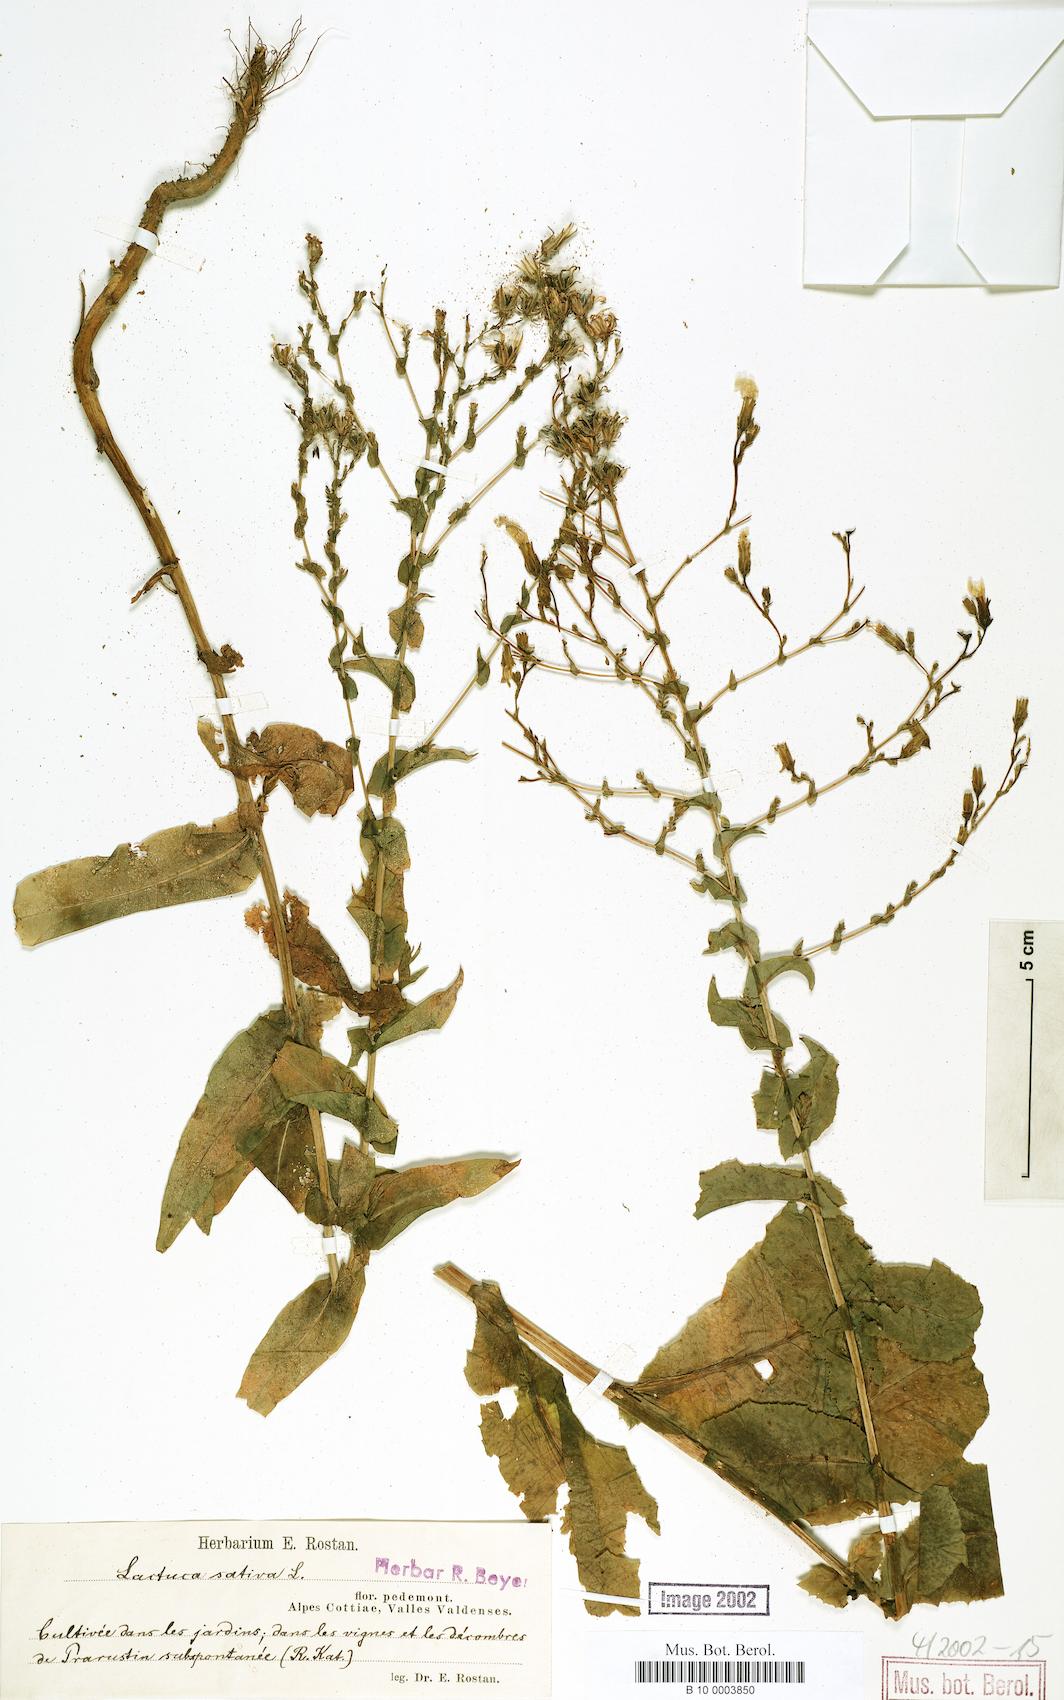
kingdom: Plantae
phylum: Tracheophyta
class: Magnoliopsida
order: Asterales
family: Asteraceae
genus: Lactuca
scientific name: Lactuca sativa
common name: Garden lettuce
